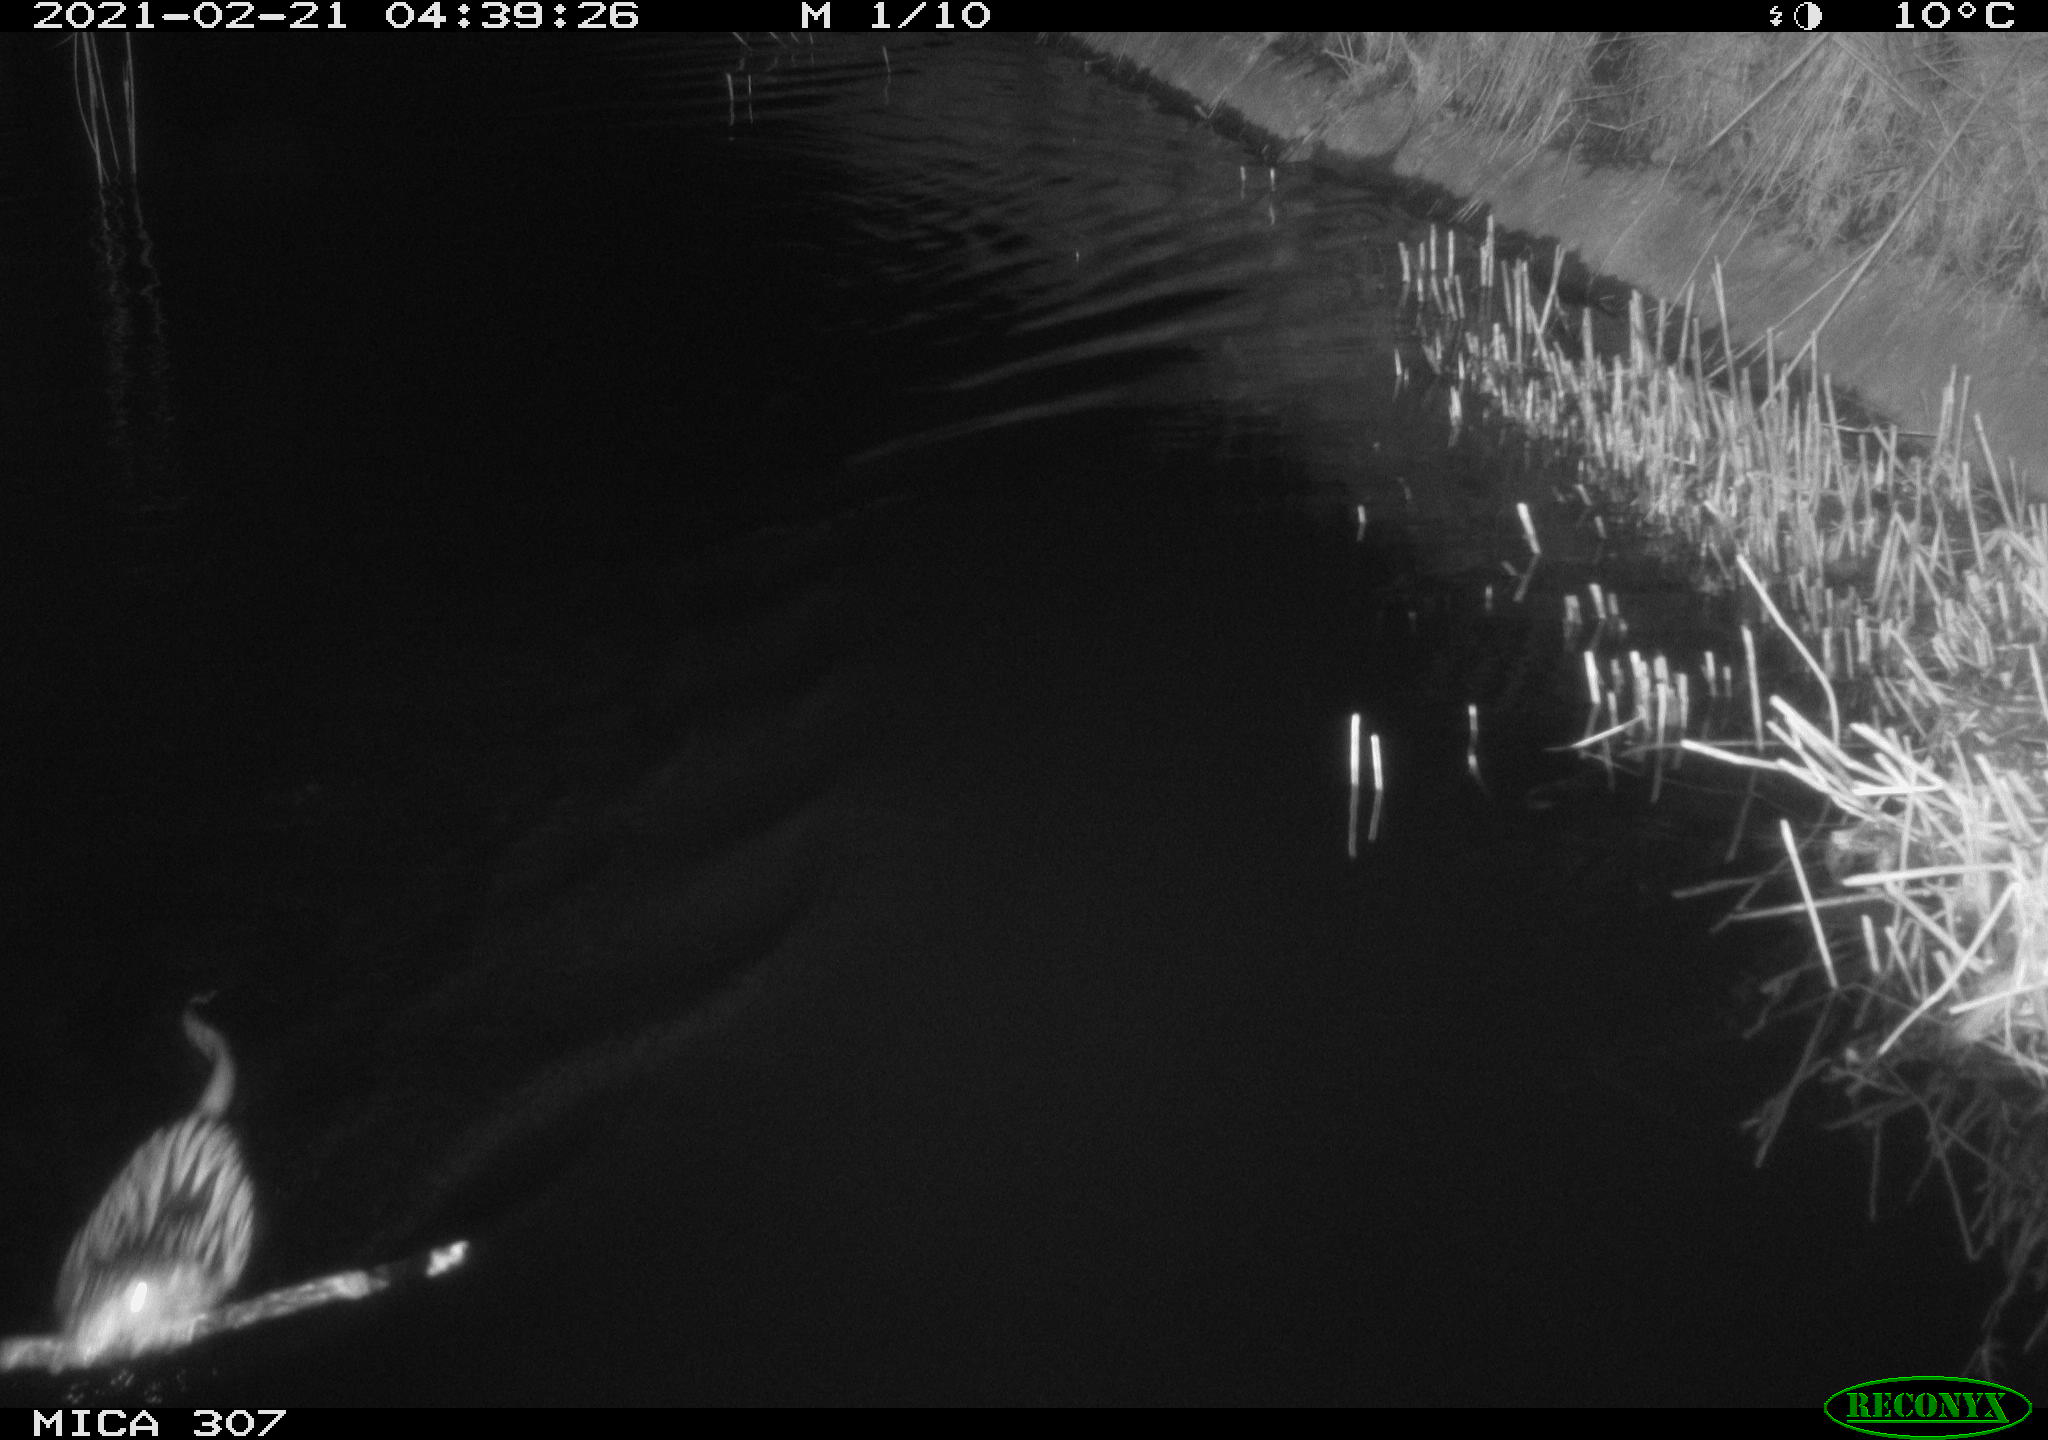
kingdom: Animalia
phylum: Chordata
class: Mammalia
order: Rodentia
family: Cricetidae
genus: Ondatra
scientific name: Ondatra zibethicus
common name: Muskrat
